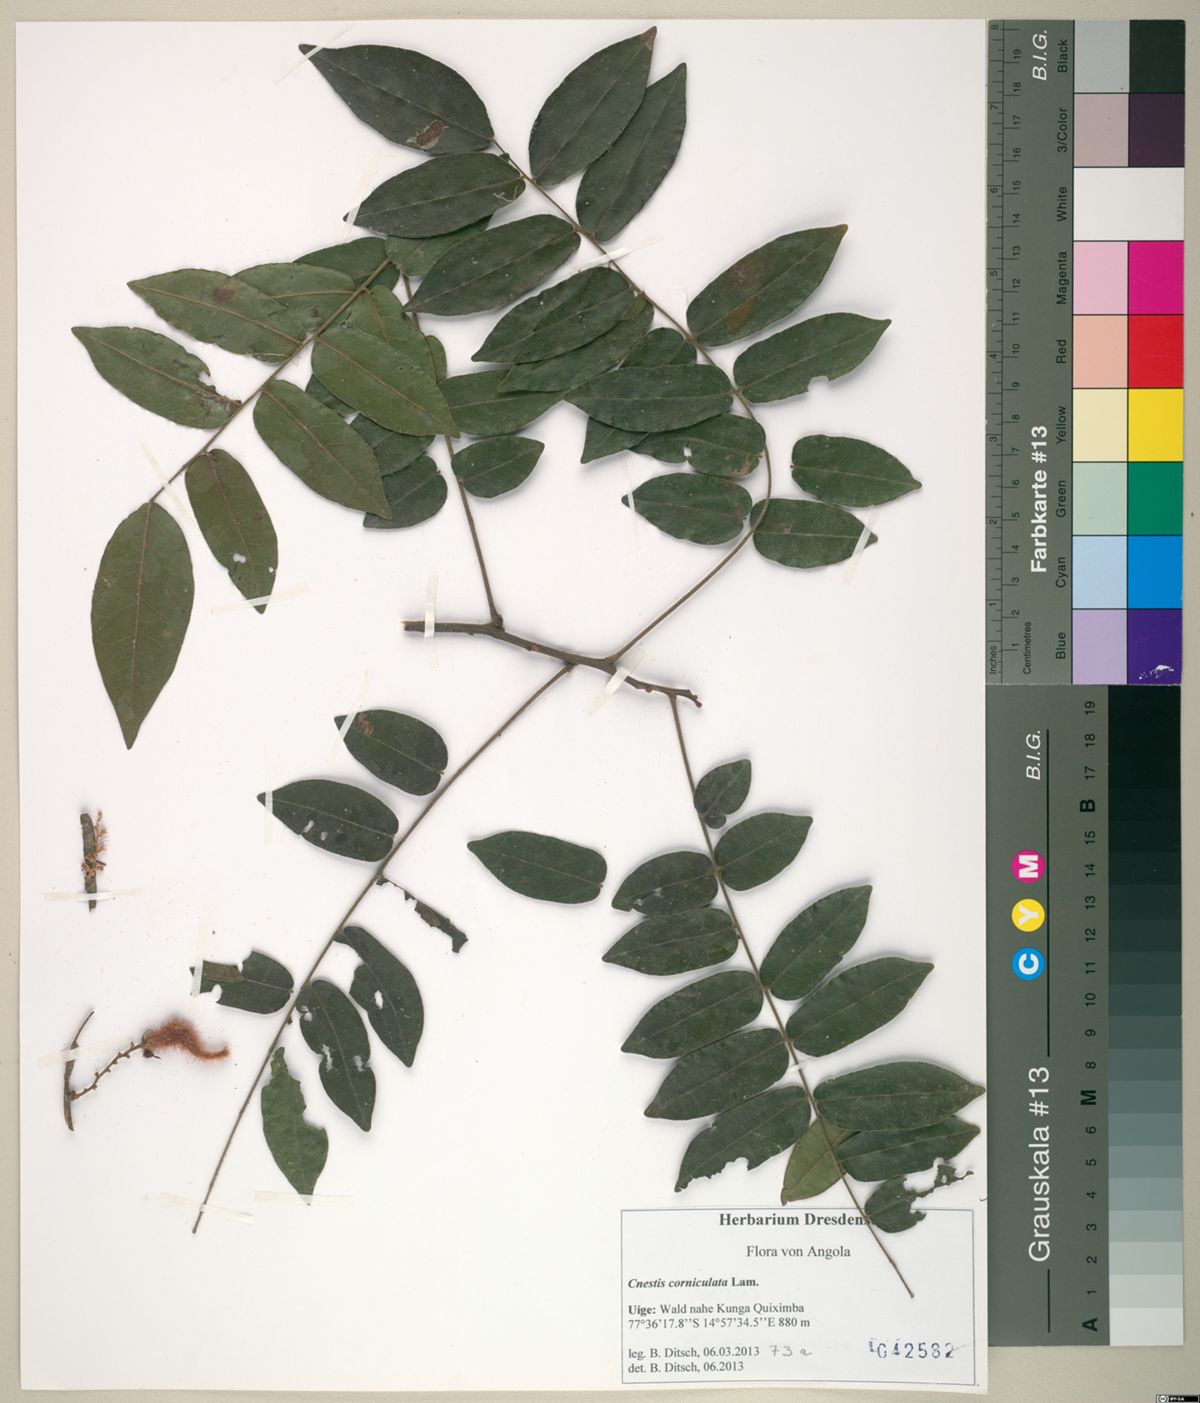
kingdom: Plantae
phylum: Tracheophyta
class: Magnoliopsida
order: Oxalidales
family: Connaraceae
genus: Cnestis
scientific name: Cnestis corniculata
